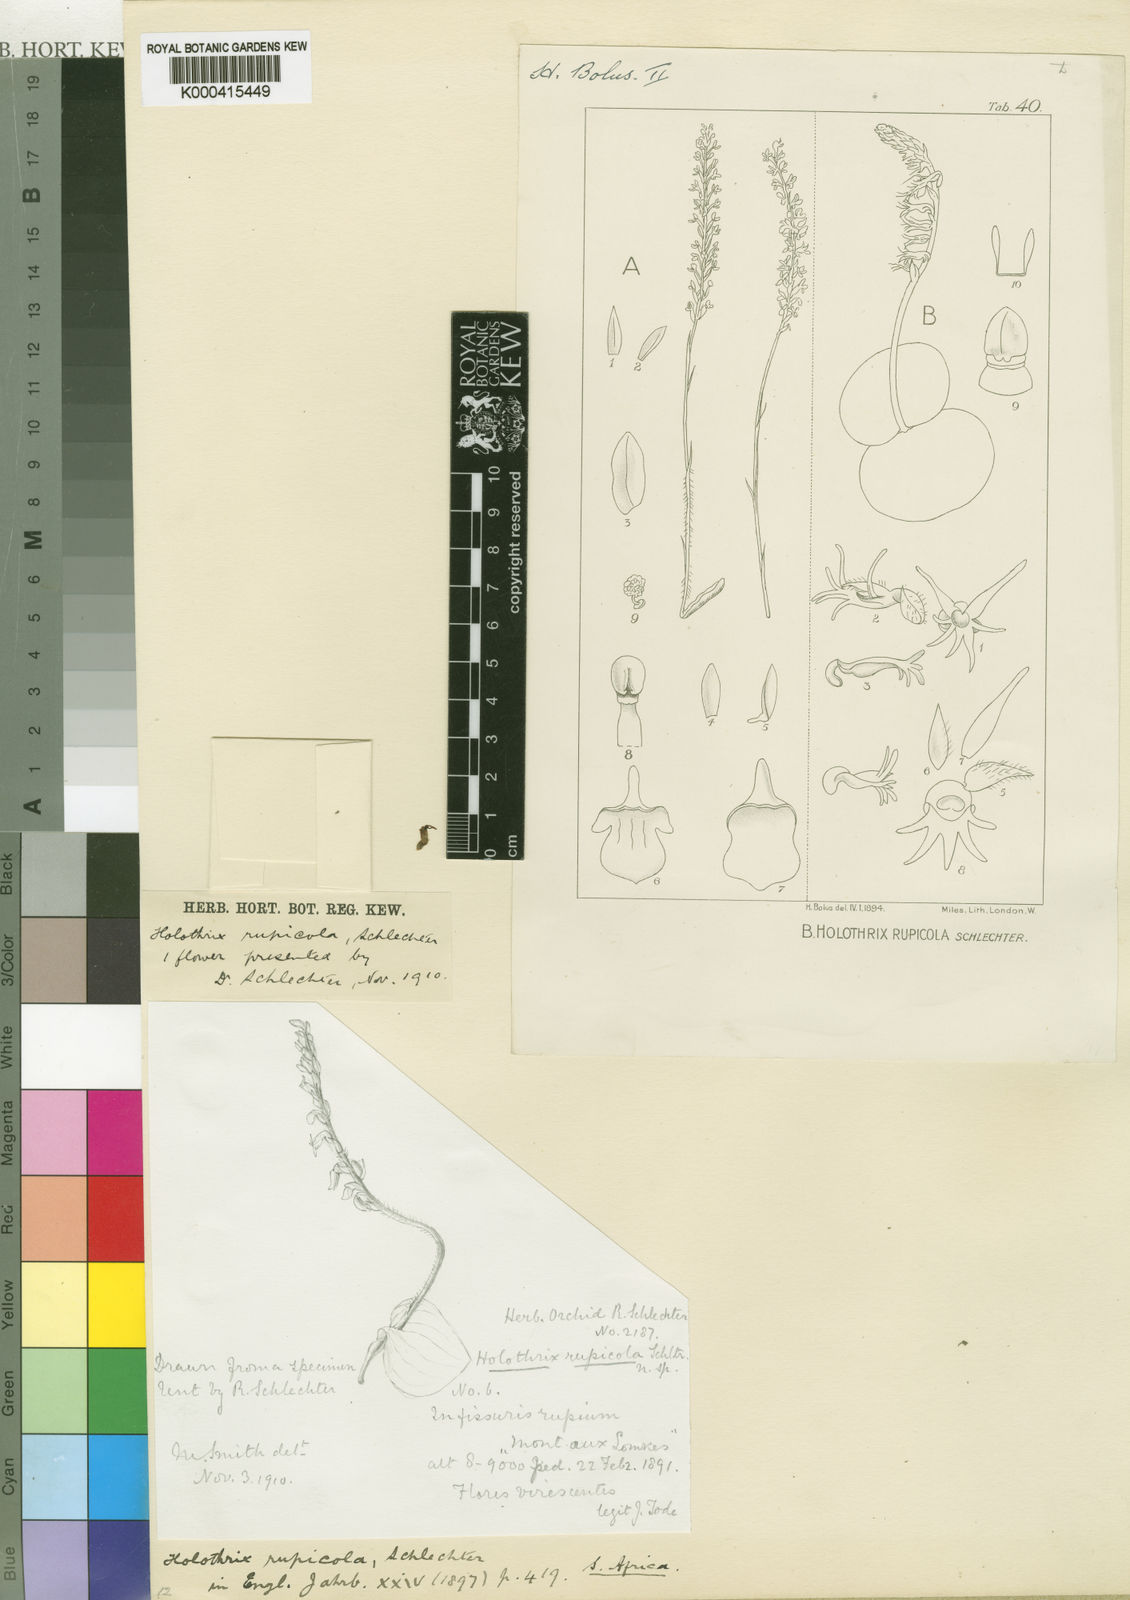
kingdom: Plantae
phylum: Tracheophyta
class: Liliopsida
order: Asparagales
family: Orchidaceae
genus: Holothrix
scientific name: Holothrix incurva
